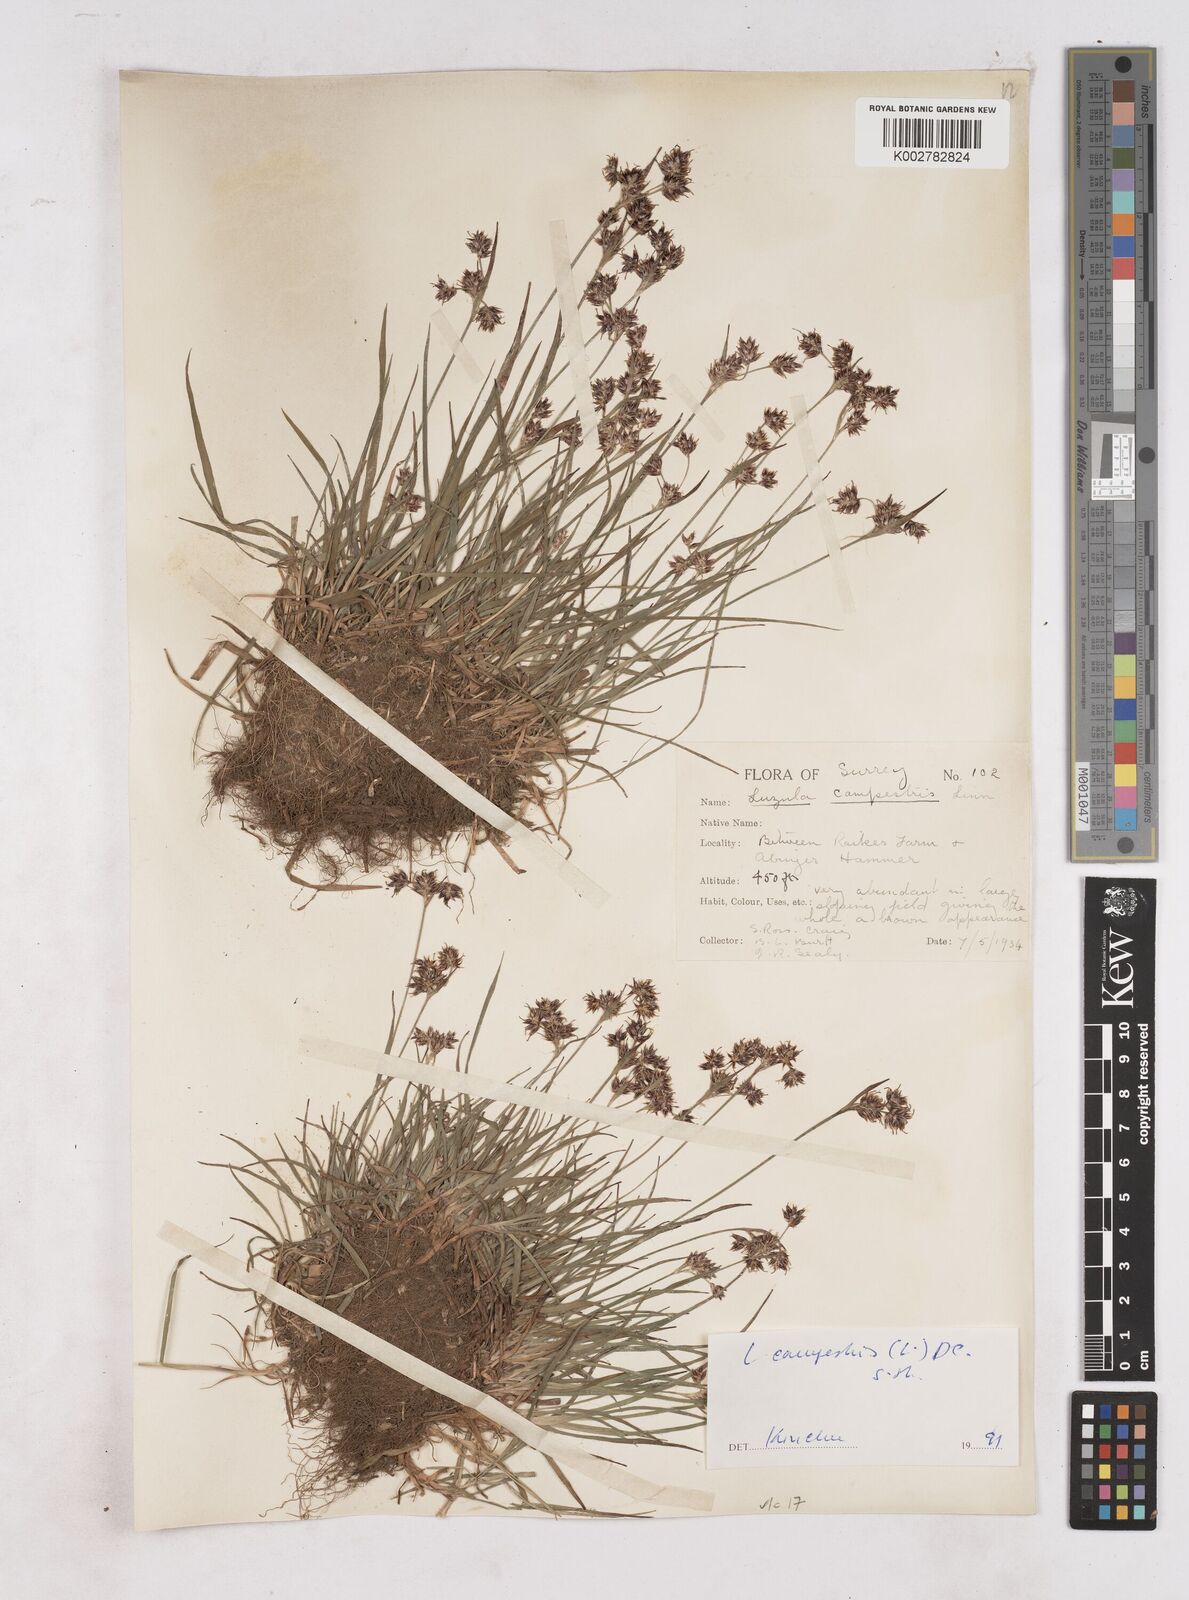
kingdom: Plantae
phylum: Tracheophyta
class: Liliopsida
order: Poales
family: Juncaceae
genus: Luzula
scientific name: Luzula campestris
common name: Field wood-rush
